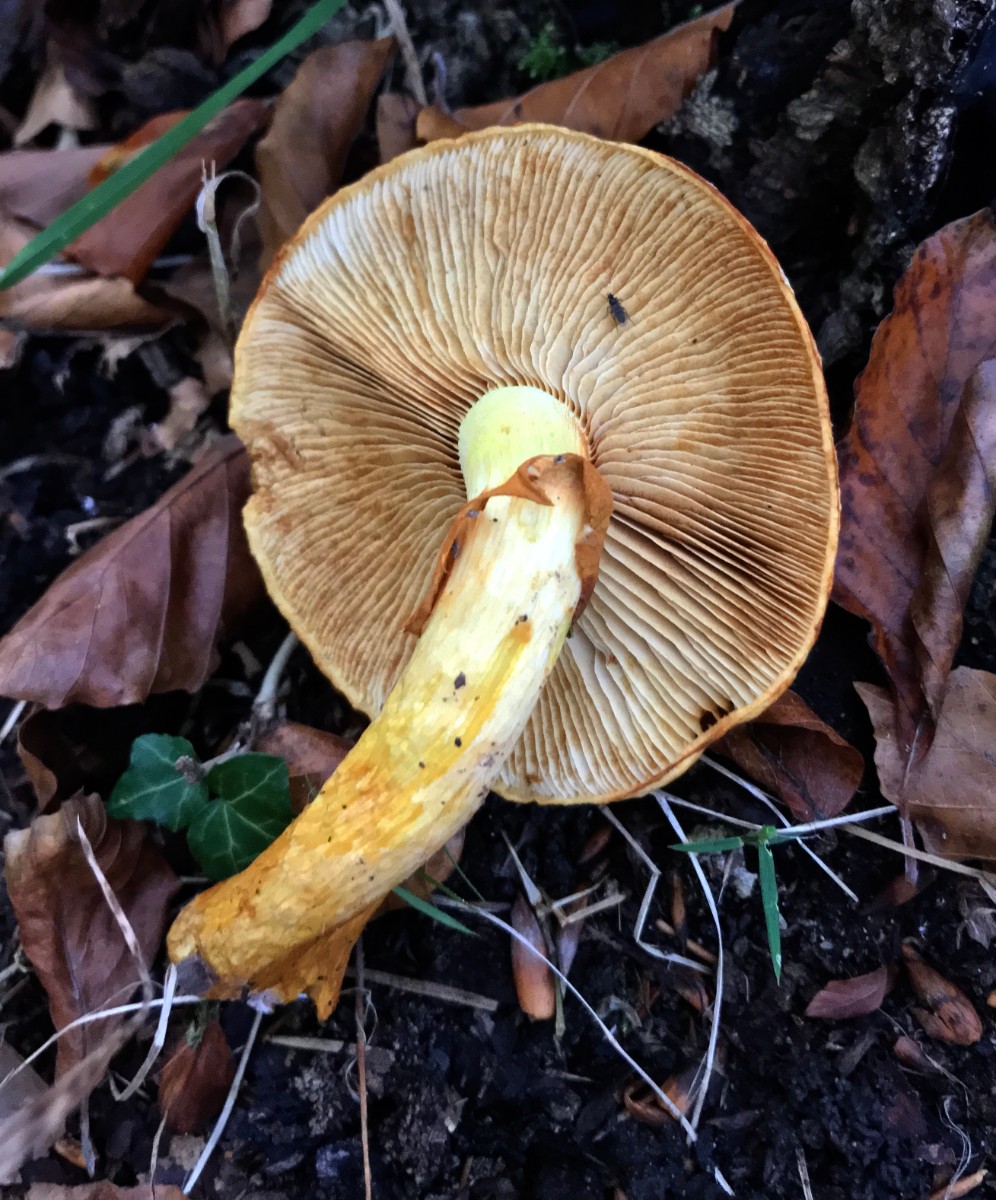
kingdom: Fungi
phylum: Basidiomycota
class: Agaricomycetes
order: Agaricales
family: Hymenogastraceae
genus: Gymnopilus
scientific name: Gymnopilus spectabilis
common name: fibret flammehat
